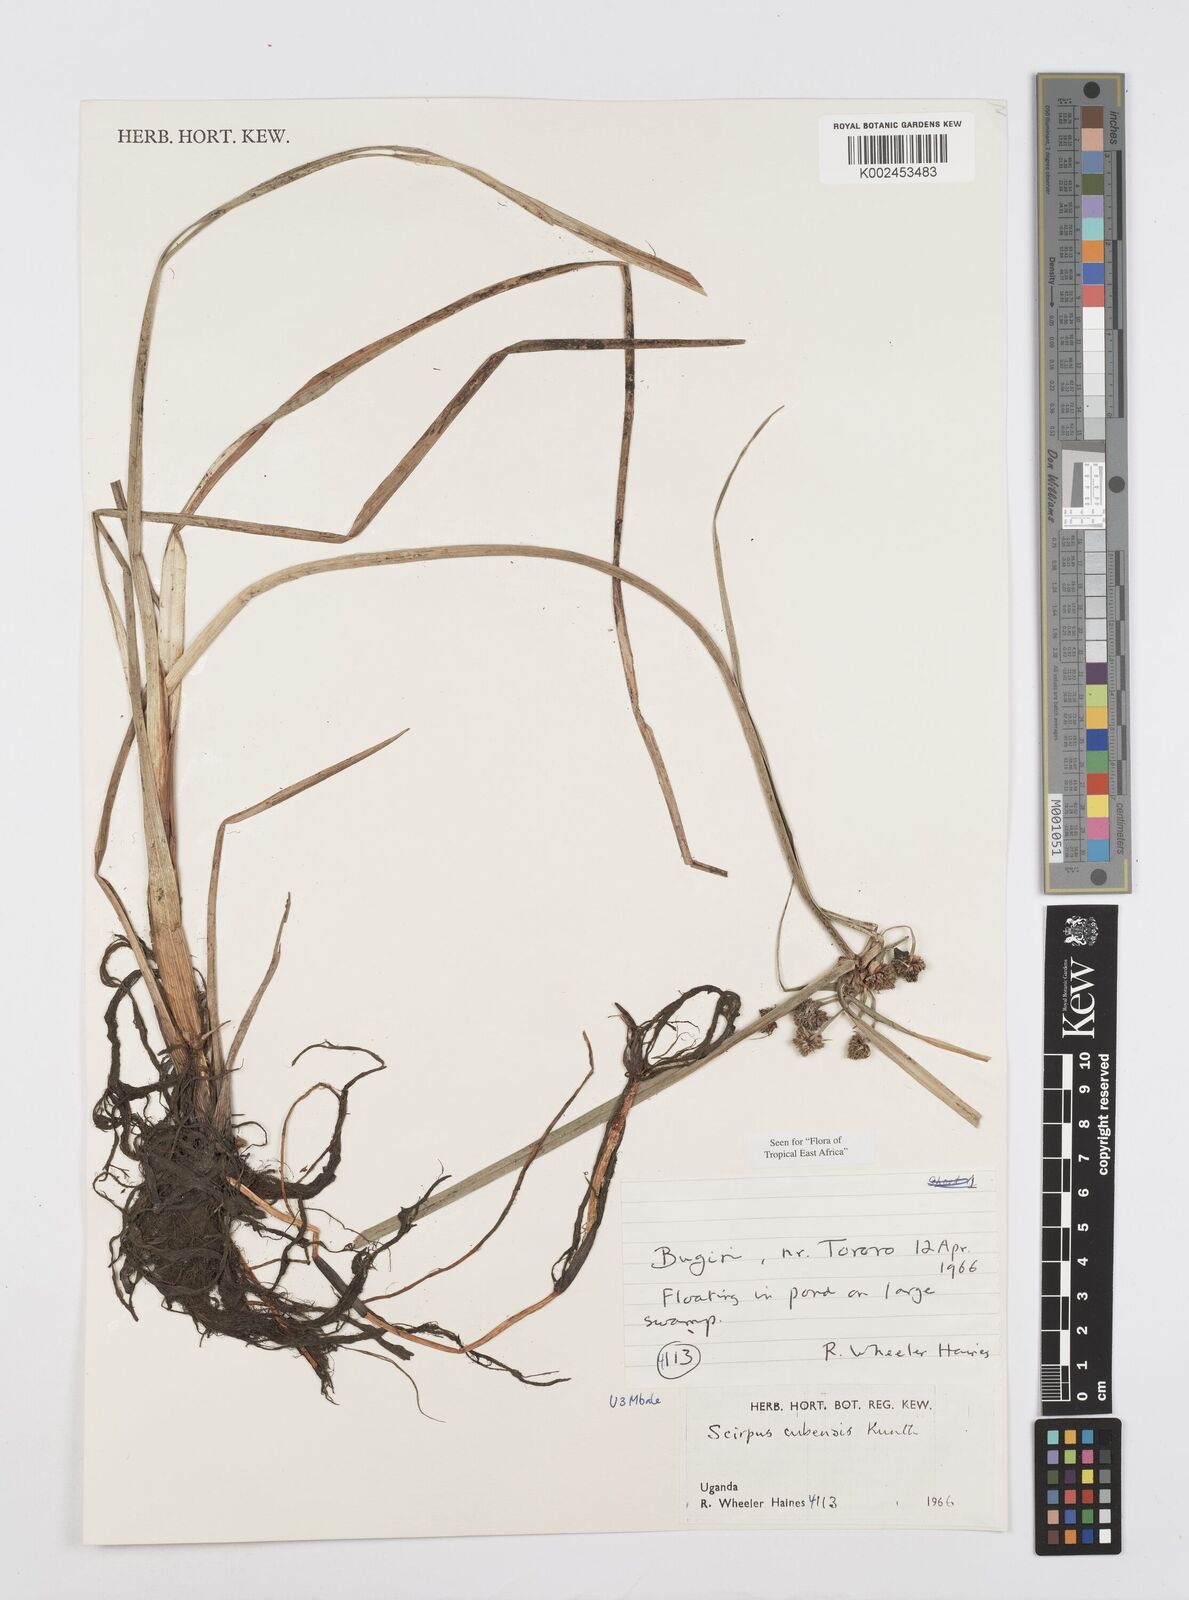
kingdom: Plantae
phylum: Tracheophyta
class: Liliopsida
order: Poales
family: Cyperaceae
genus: Cyperus
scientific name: Cyperus elegans
